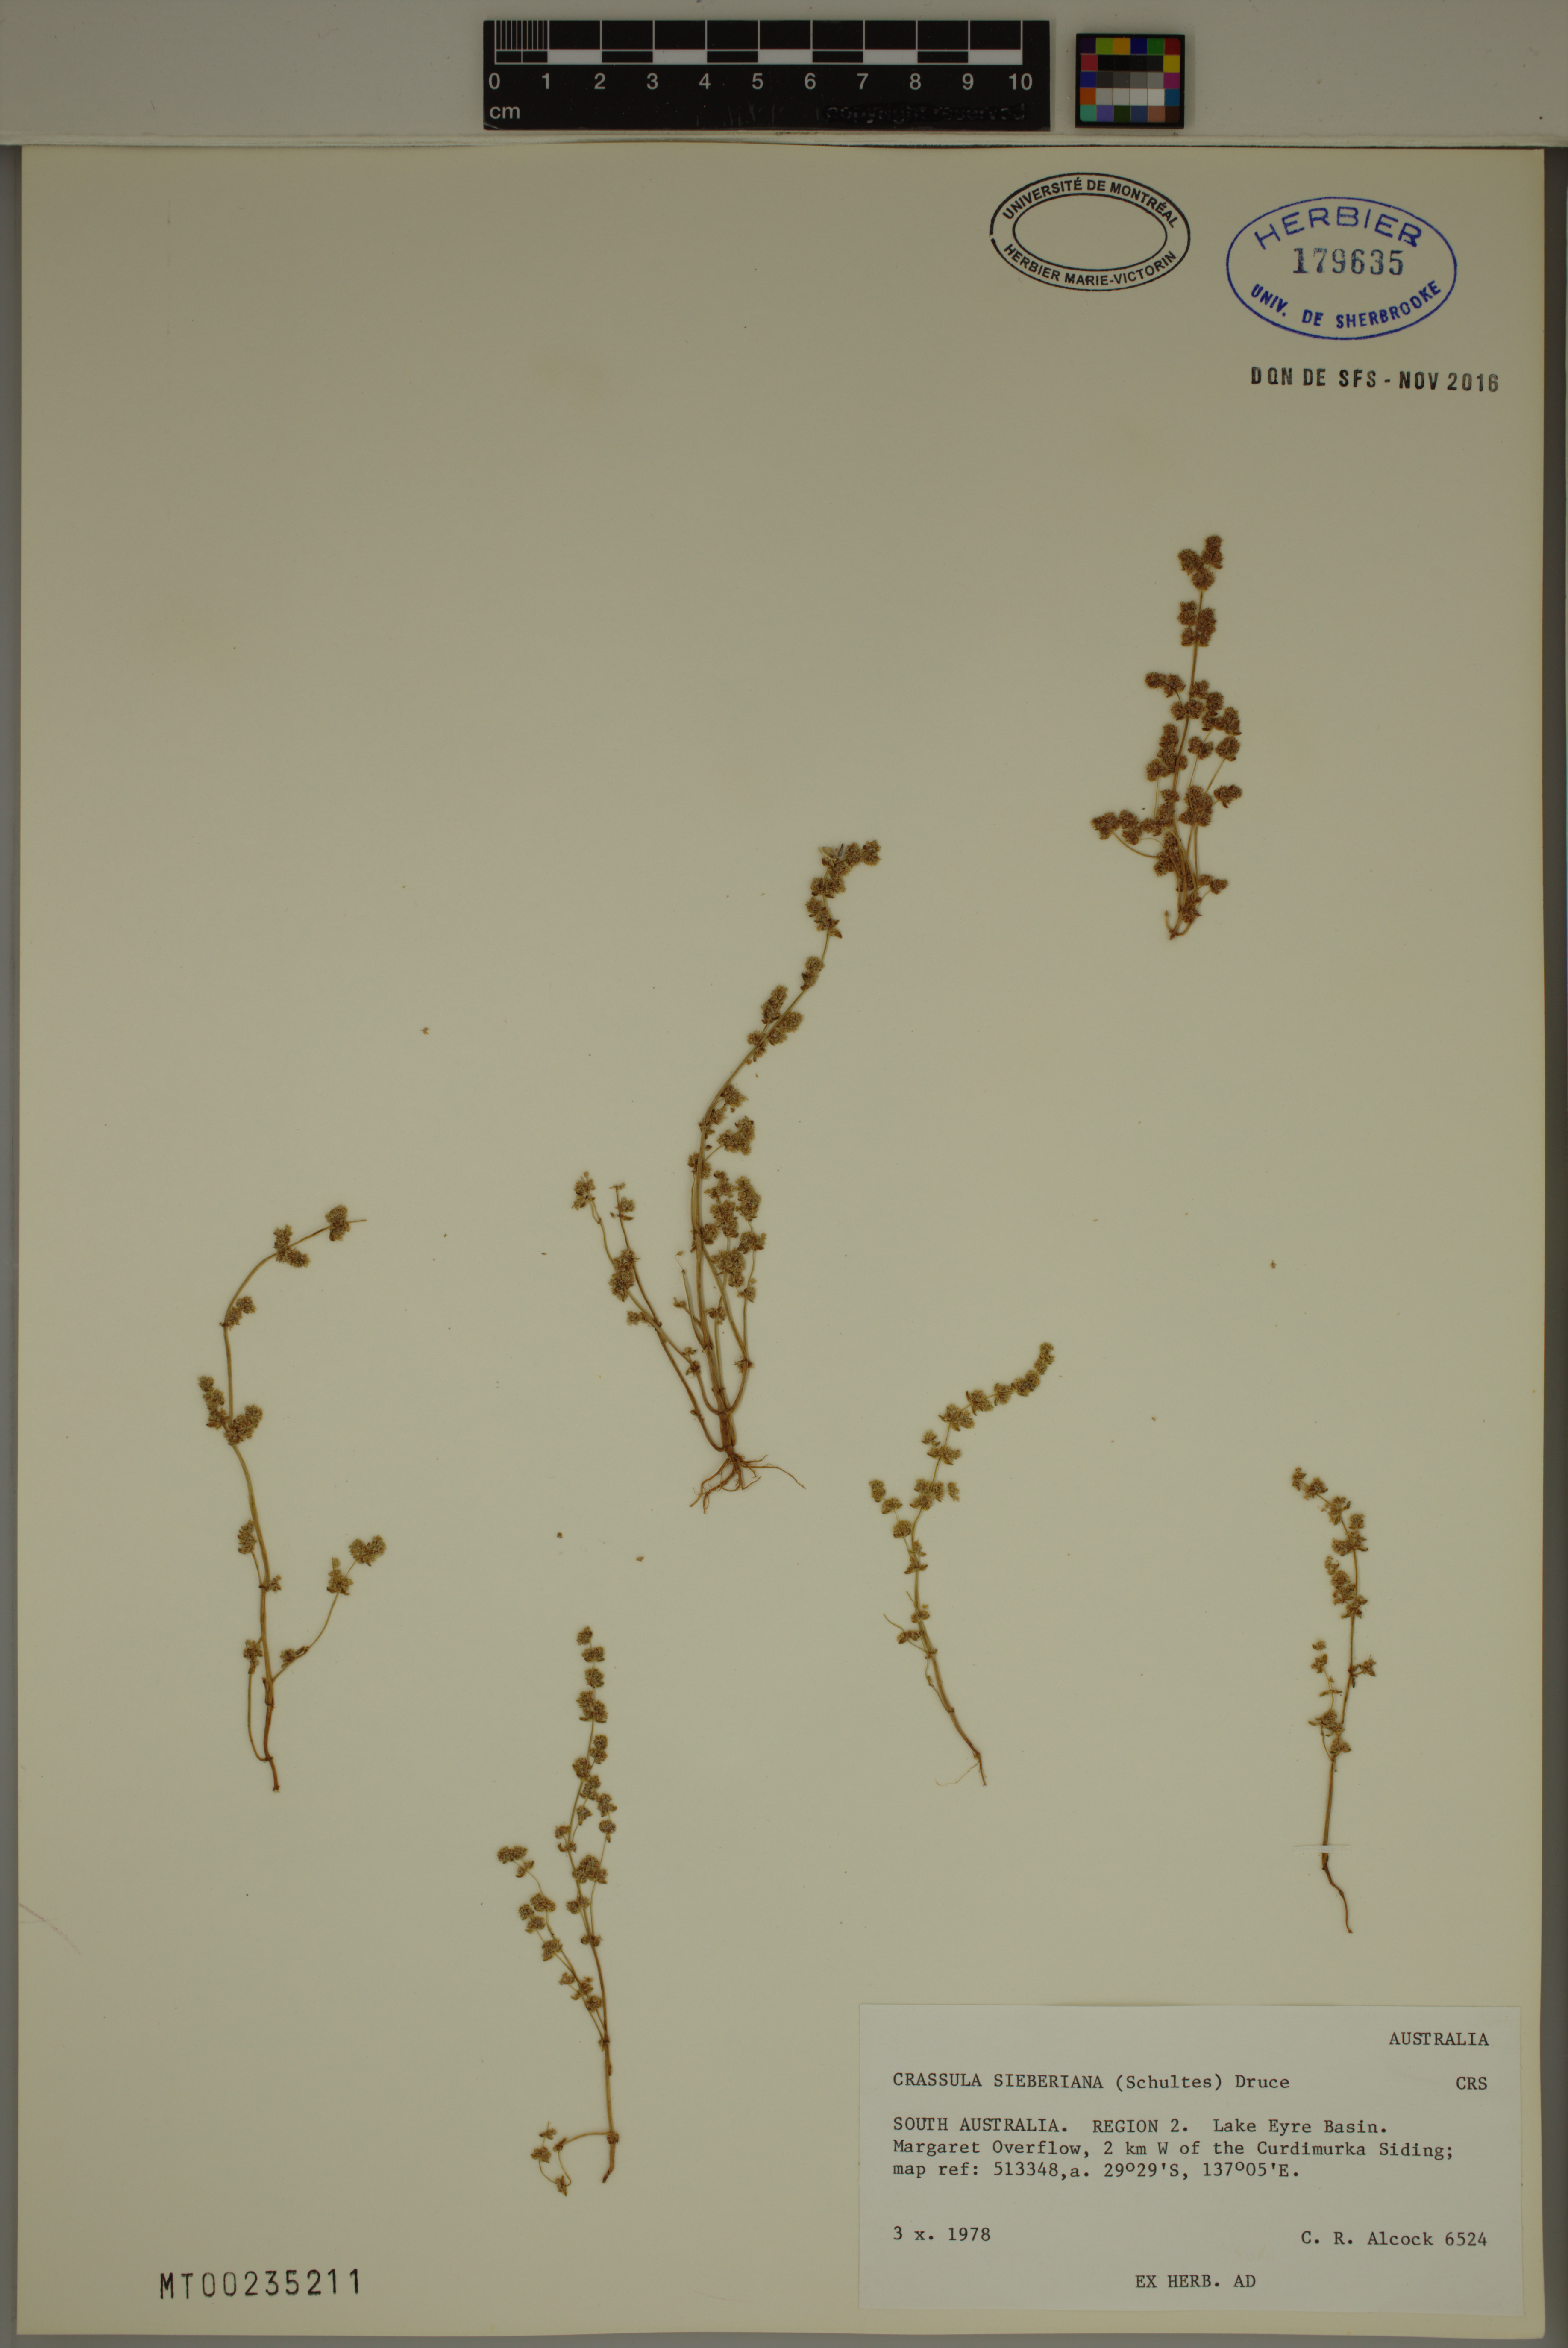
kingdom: Plantae
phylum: Tracheophyta
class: Magnoliopsida
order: Saxifragales
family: Crassulaceae
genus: Crassula
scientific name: Crassula sieberiana
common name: Siberian pygmyweed
